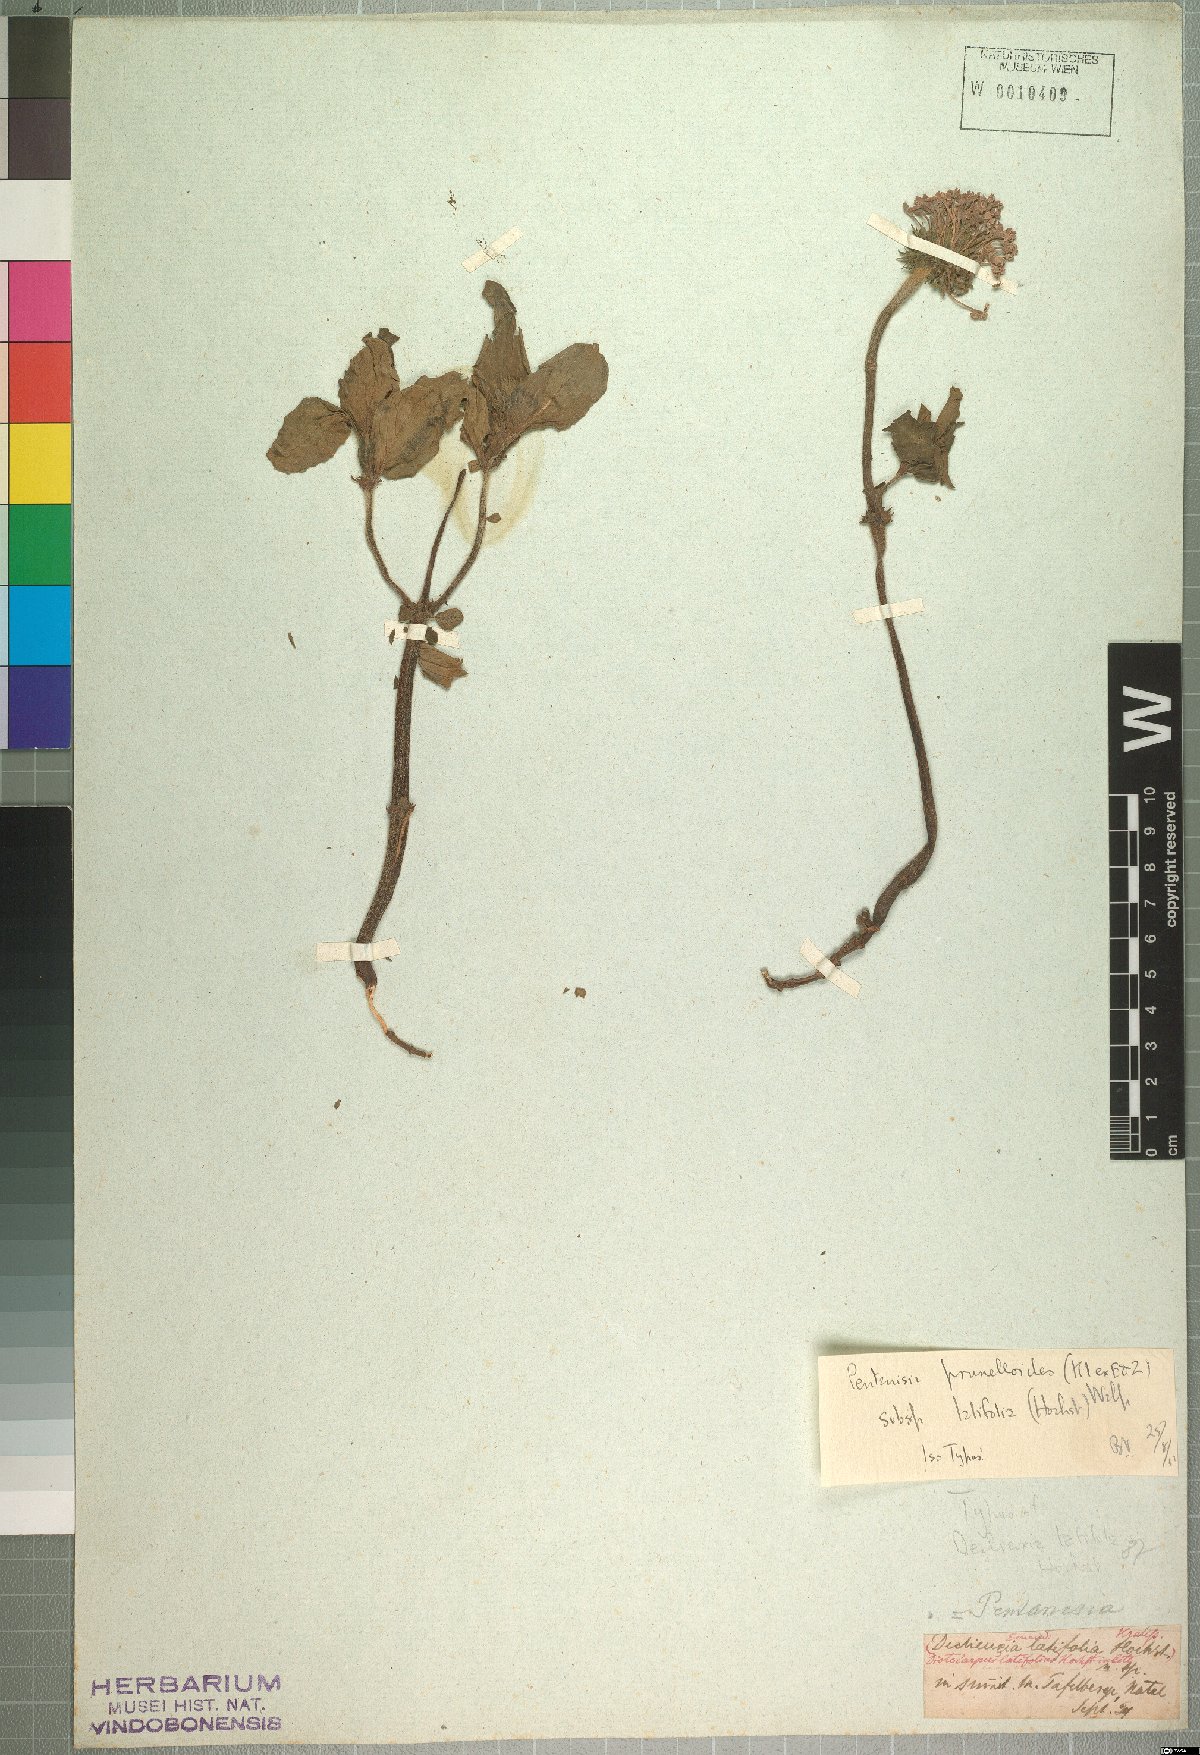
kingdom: Plantae
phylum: Tracheophyta
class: Magnoliopsida
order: Gentianales
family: Rubiaceae
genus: Pentanisia
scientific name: Pentanisia prunelloides
